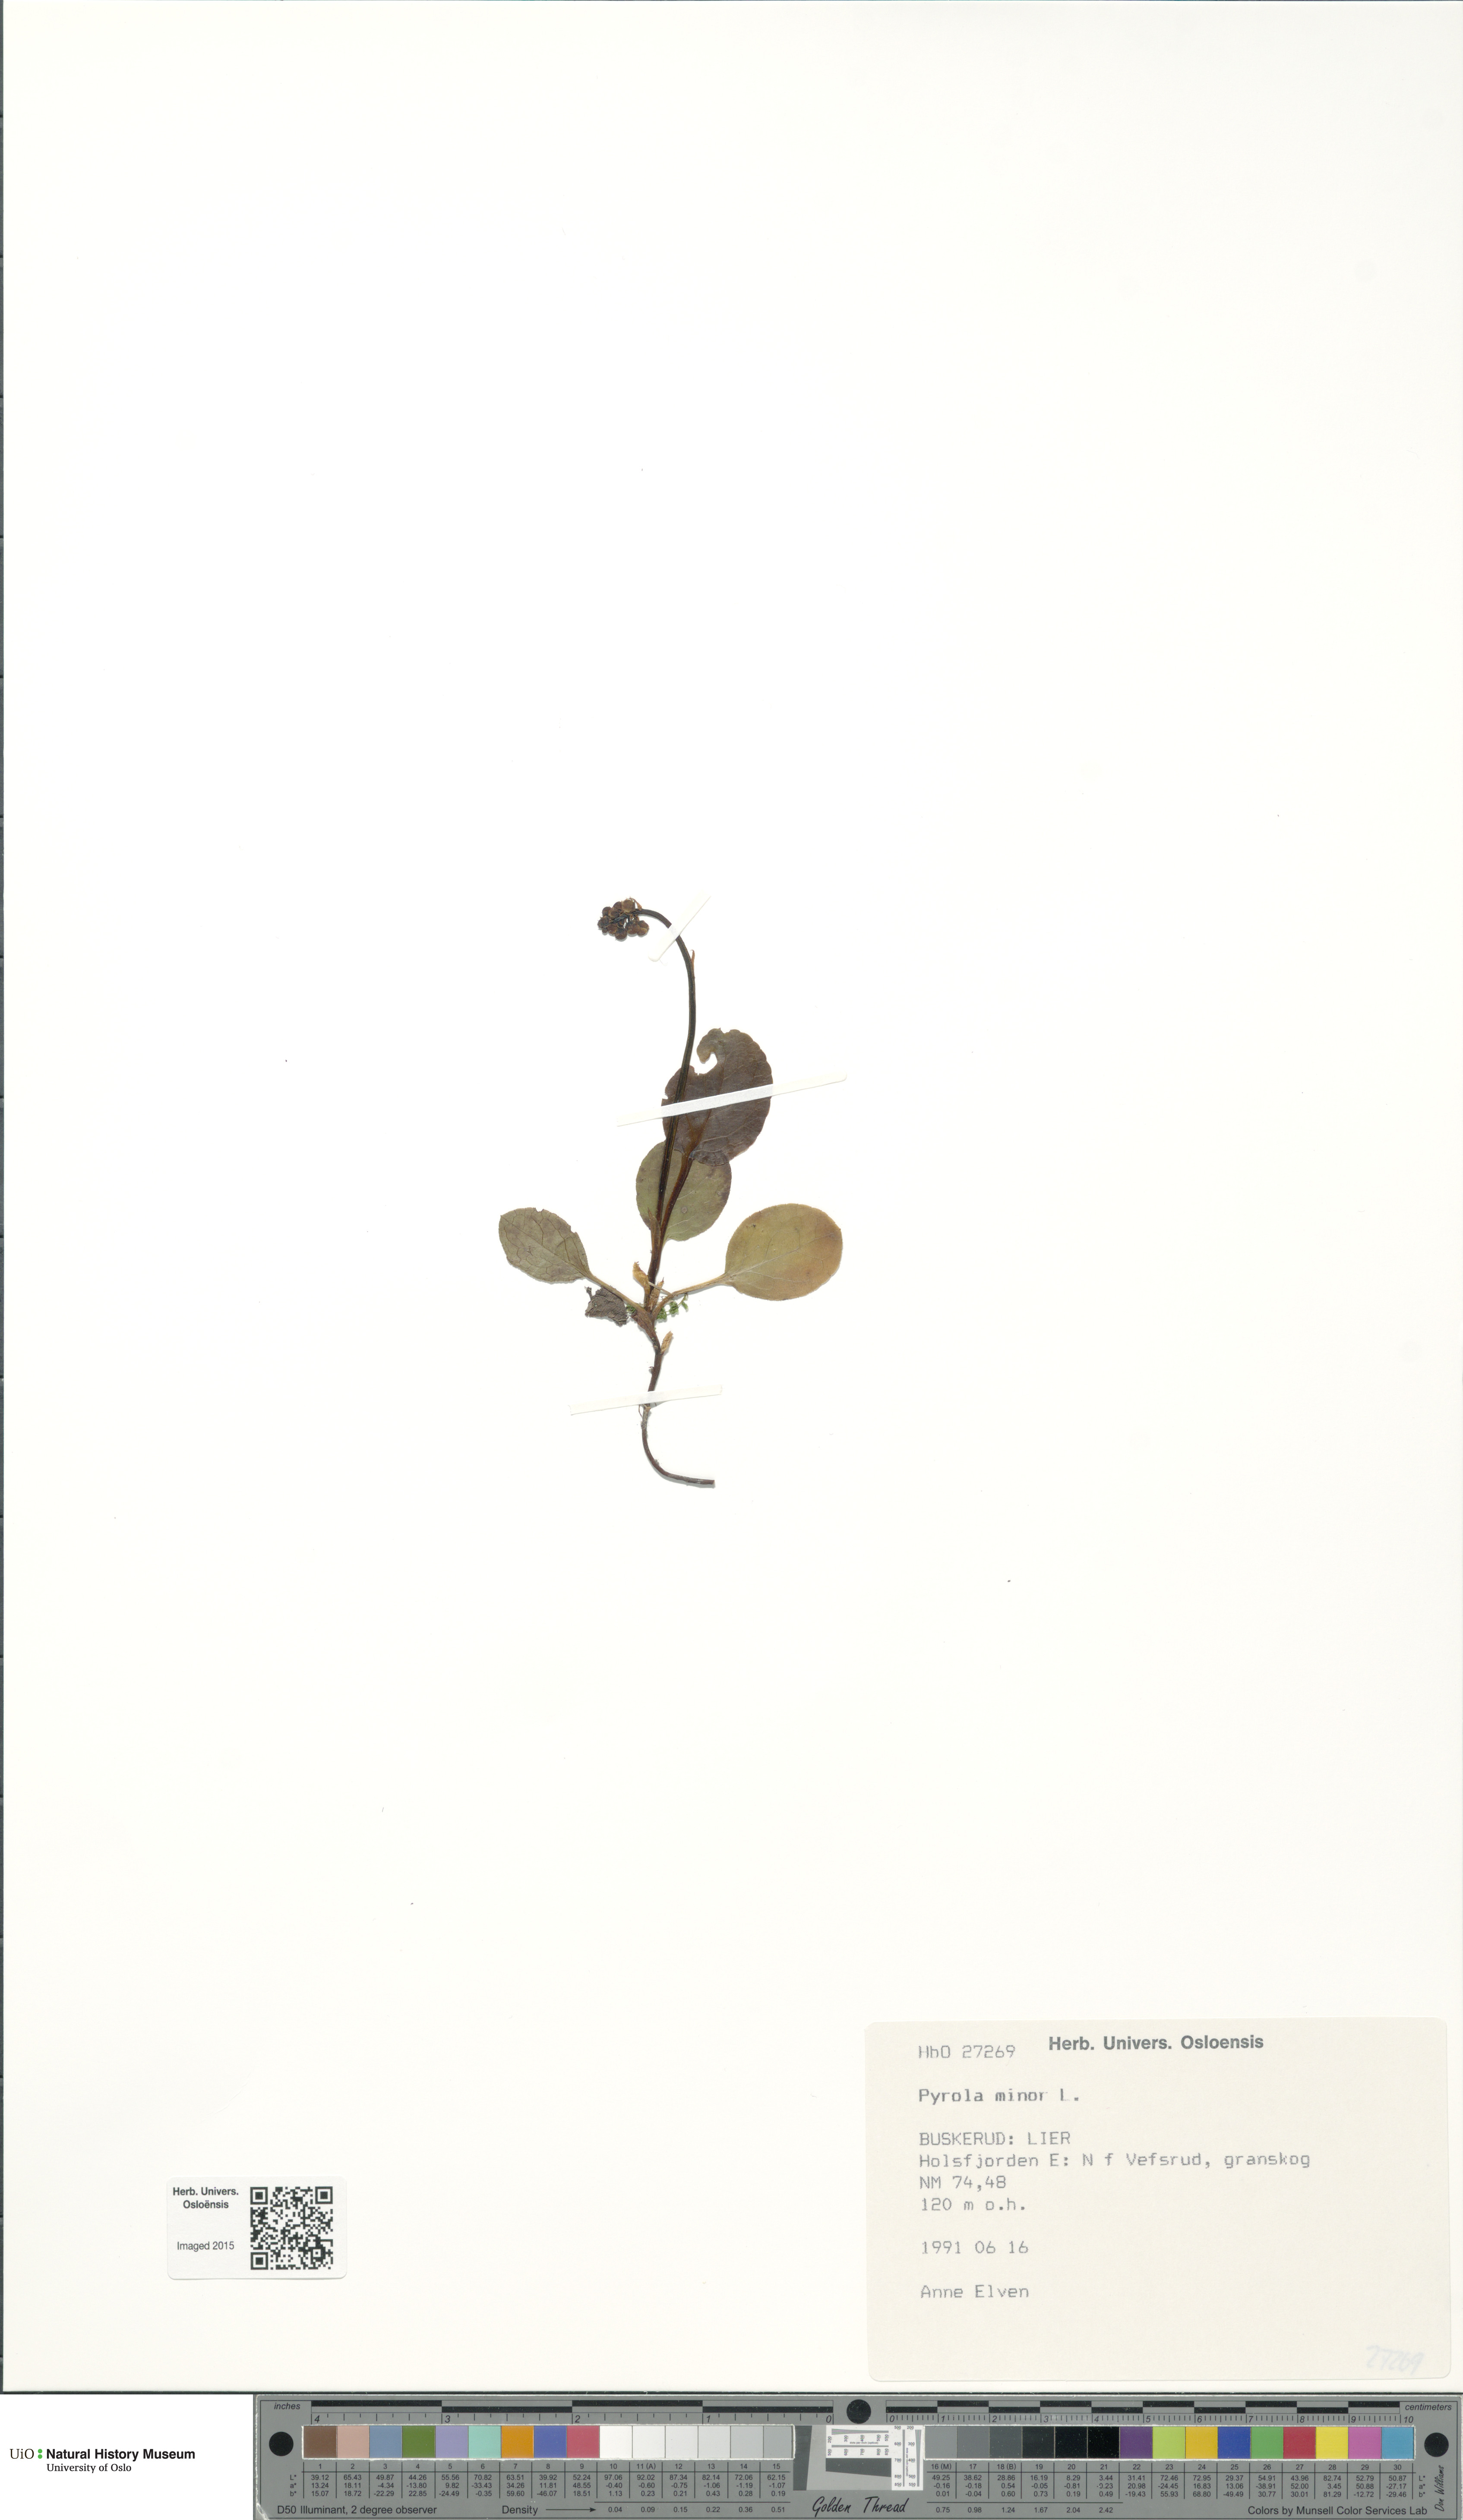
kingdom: Plantae
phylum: Tracheophyta
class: Magnoliopsida
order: Ericales
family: Ericaceae
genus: Pyrola
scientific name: Pyrola minor
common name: Common wintergreen
